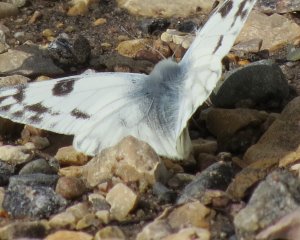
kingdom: Animalia
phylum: Arthropoda
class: Insecta
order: Lepidoptera
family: Pieridae
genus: Pontia
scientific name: Pontia protodice
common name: Checkered White
